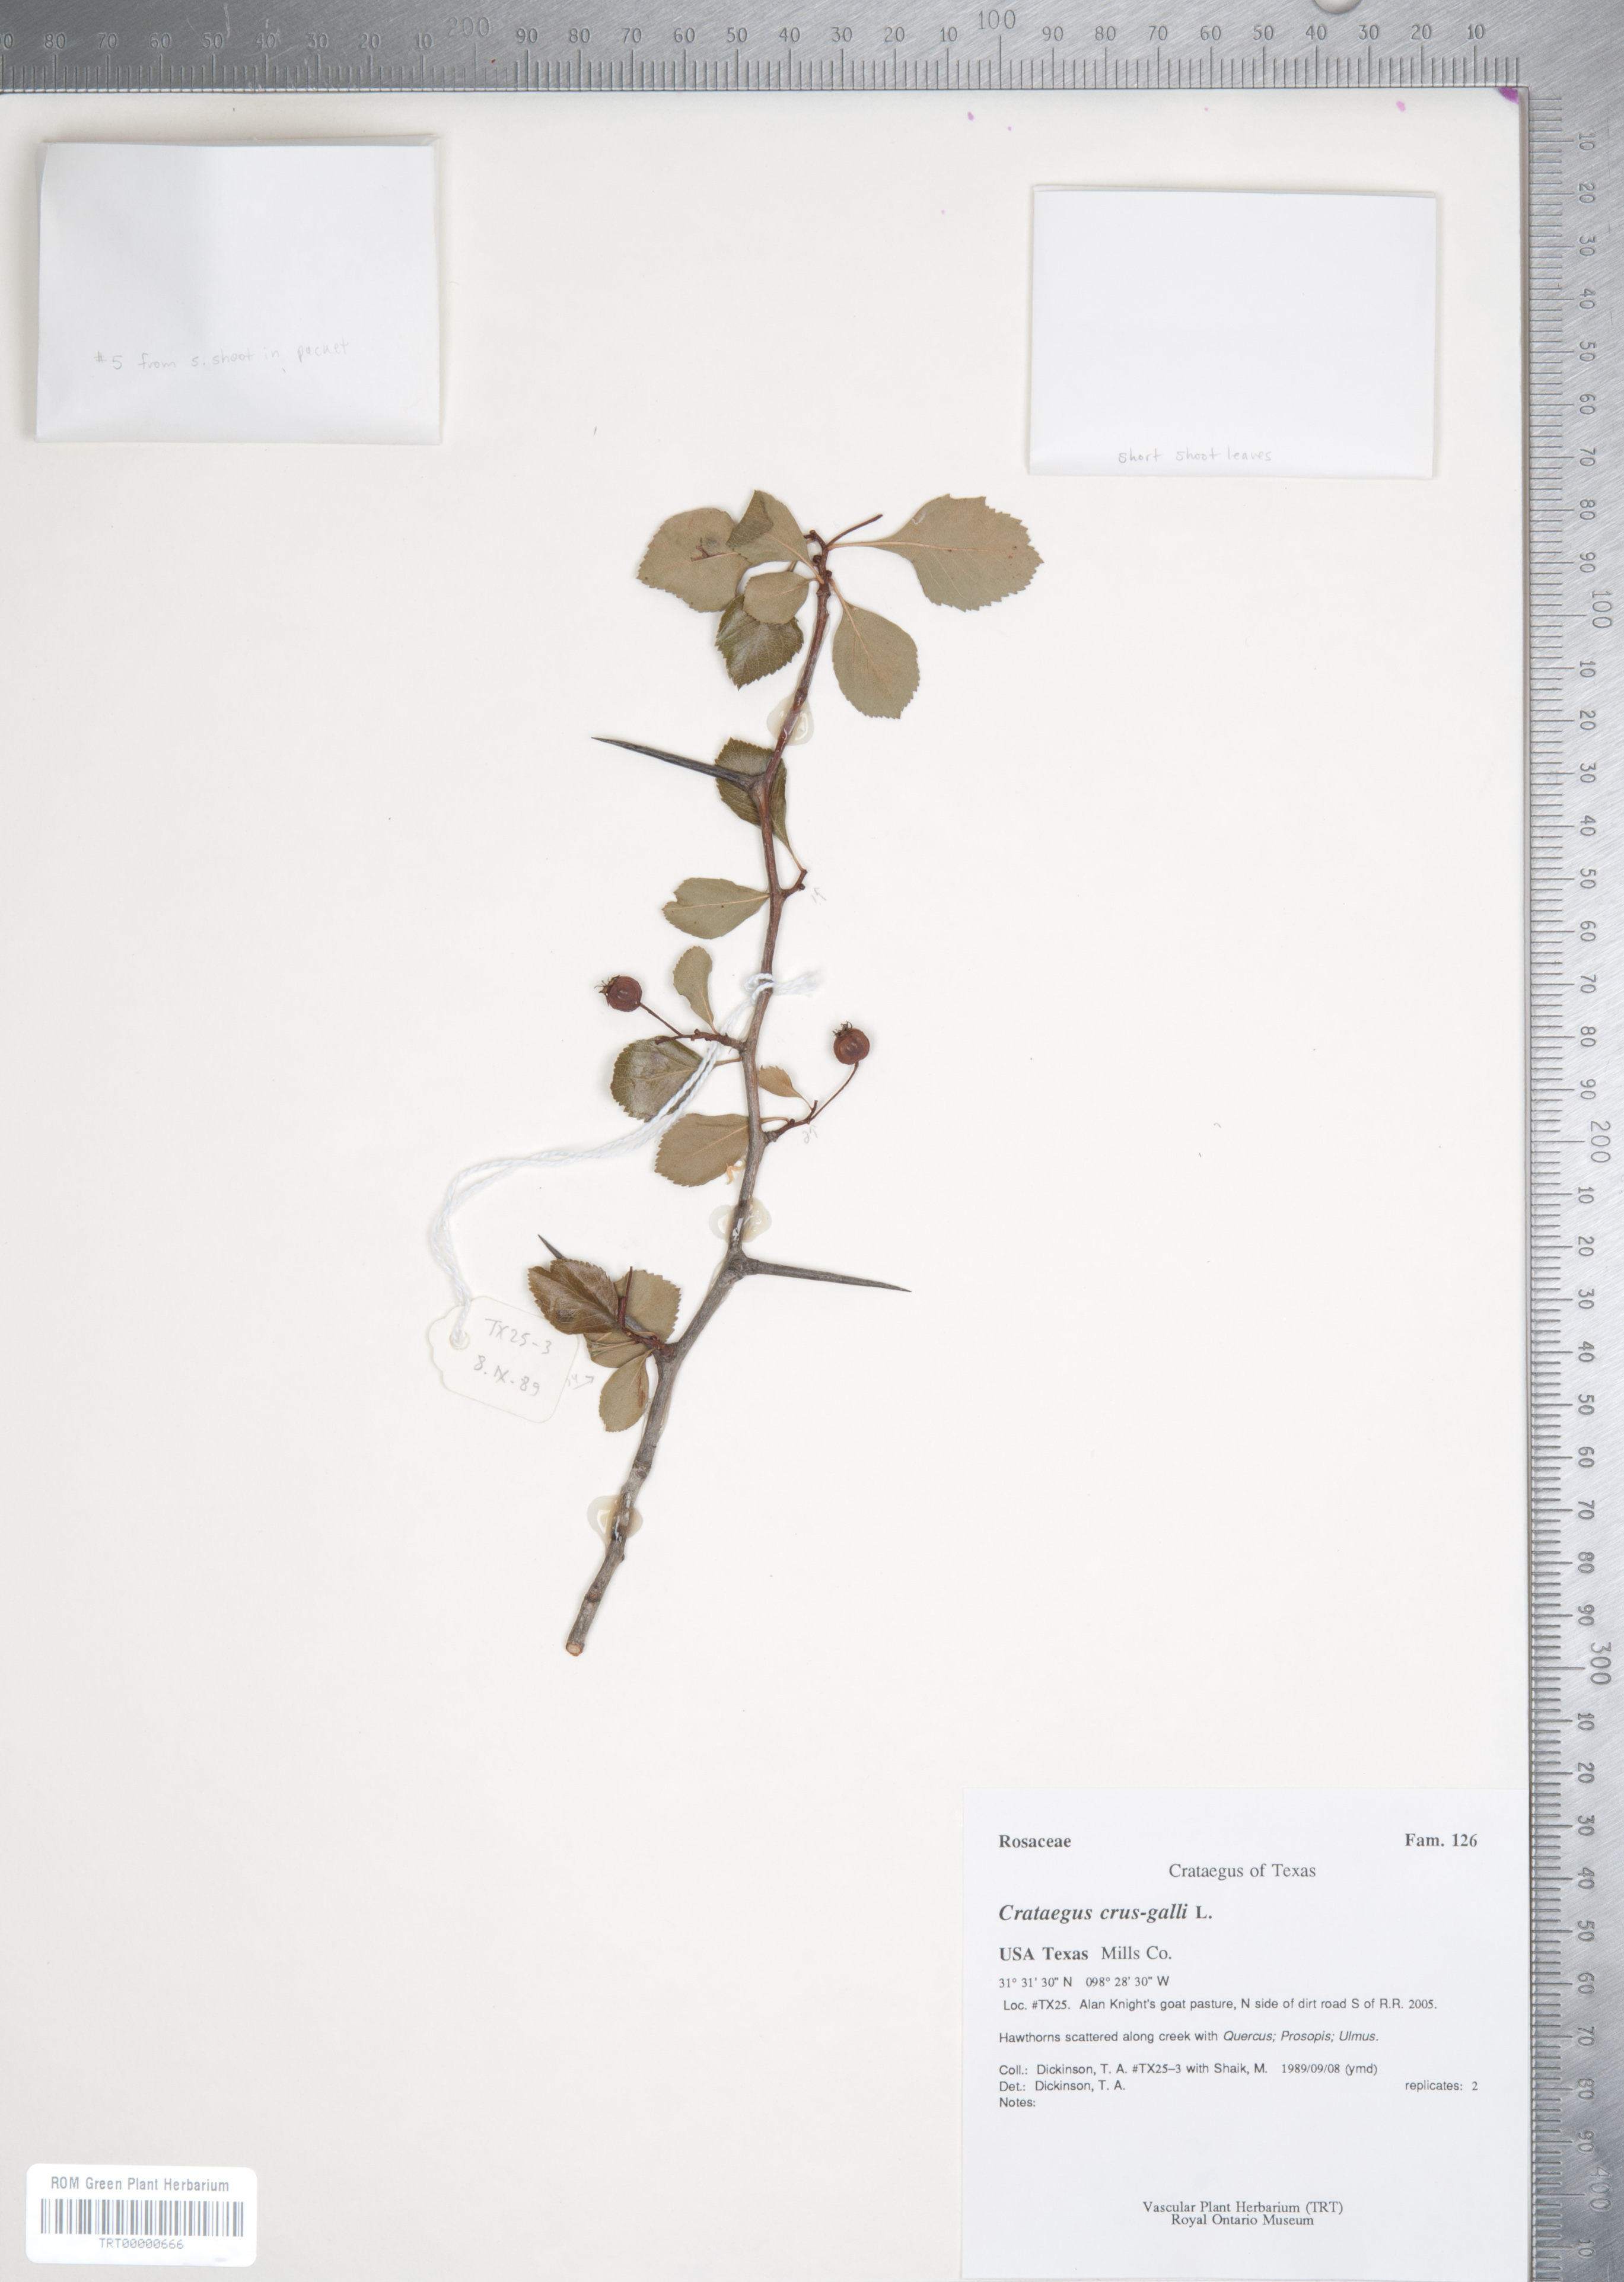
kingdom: Plantae
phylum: Tracheophyta
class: Magnoliopsida
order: Rosales
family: Rosaceae
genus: Crataegus
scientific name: Crataegus crus-galli
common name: Cockspurthorn
